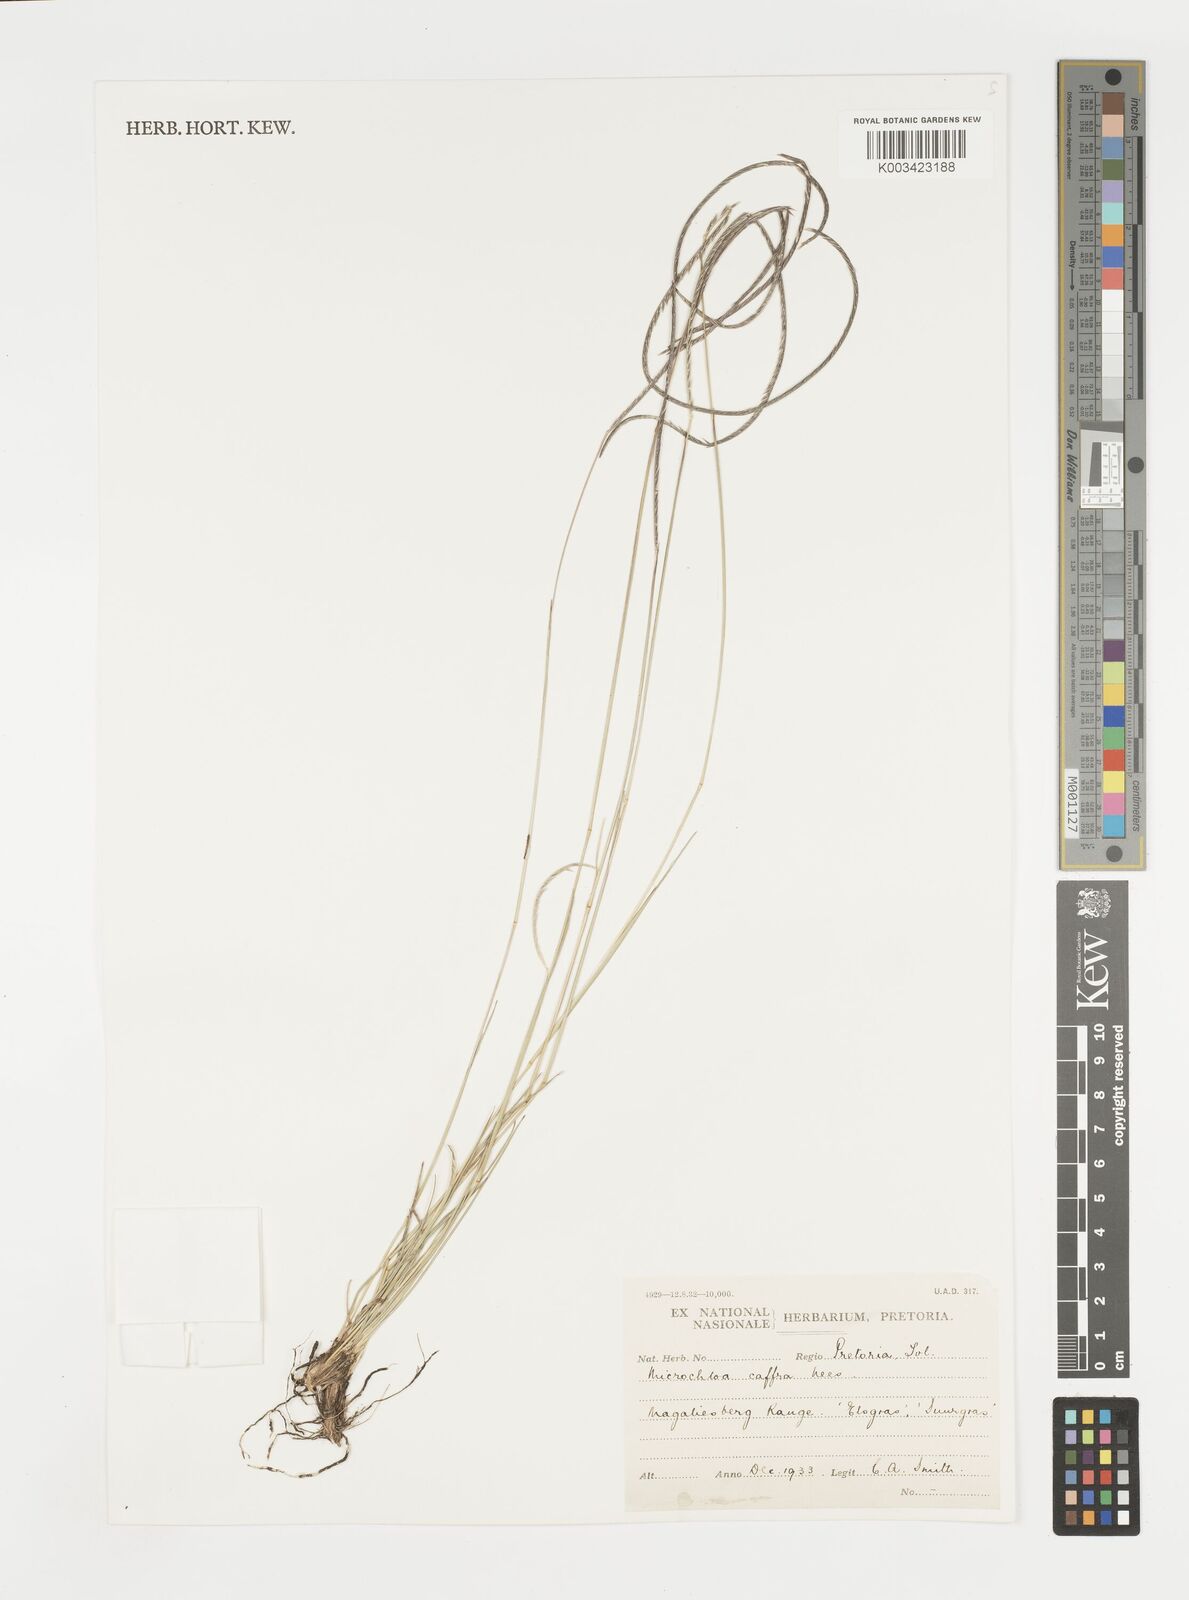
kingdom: Plantae
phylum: Tracheophyta
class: Liliopsida
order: Poales
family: Poaceae
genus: Microchloa
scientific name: Microchloa caffra
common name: Pincushion grass
